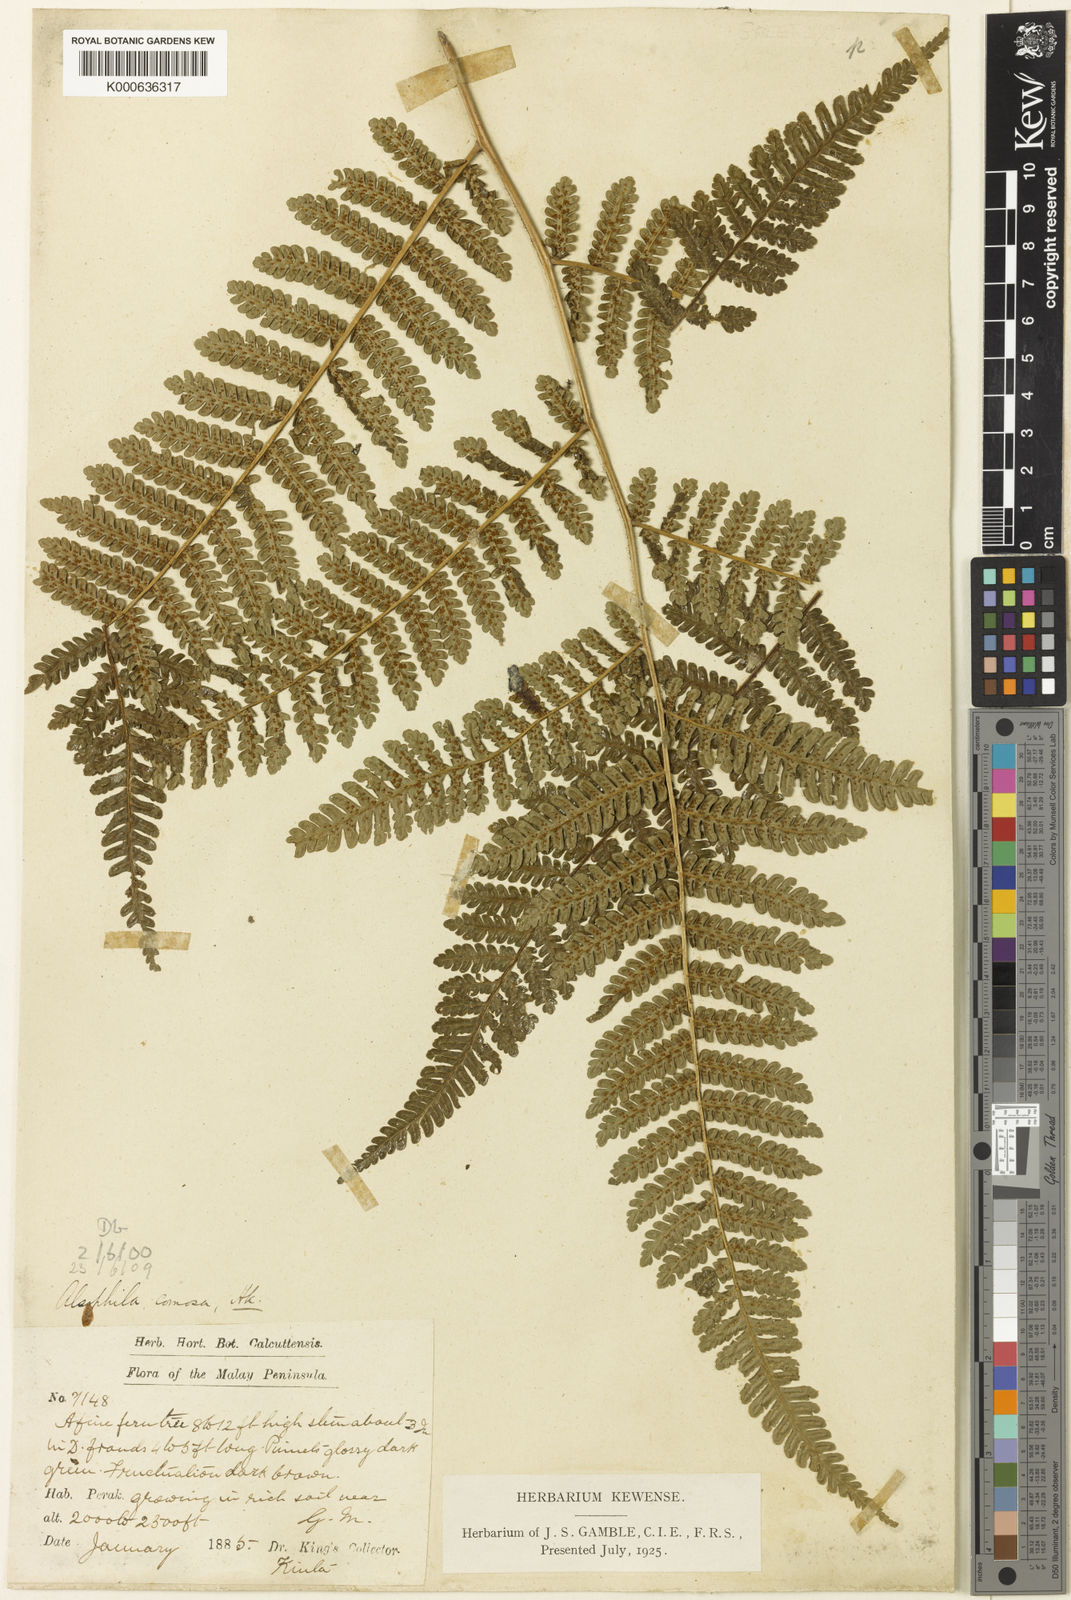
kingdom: Plantae
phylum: Tracheophyta
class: Polypodiopsida
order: Cyatheales
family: Cyatheaceae
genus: Alsophila
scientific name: Alsophila borneensis
